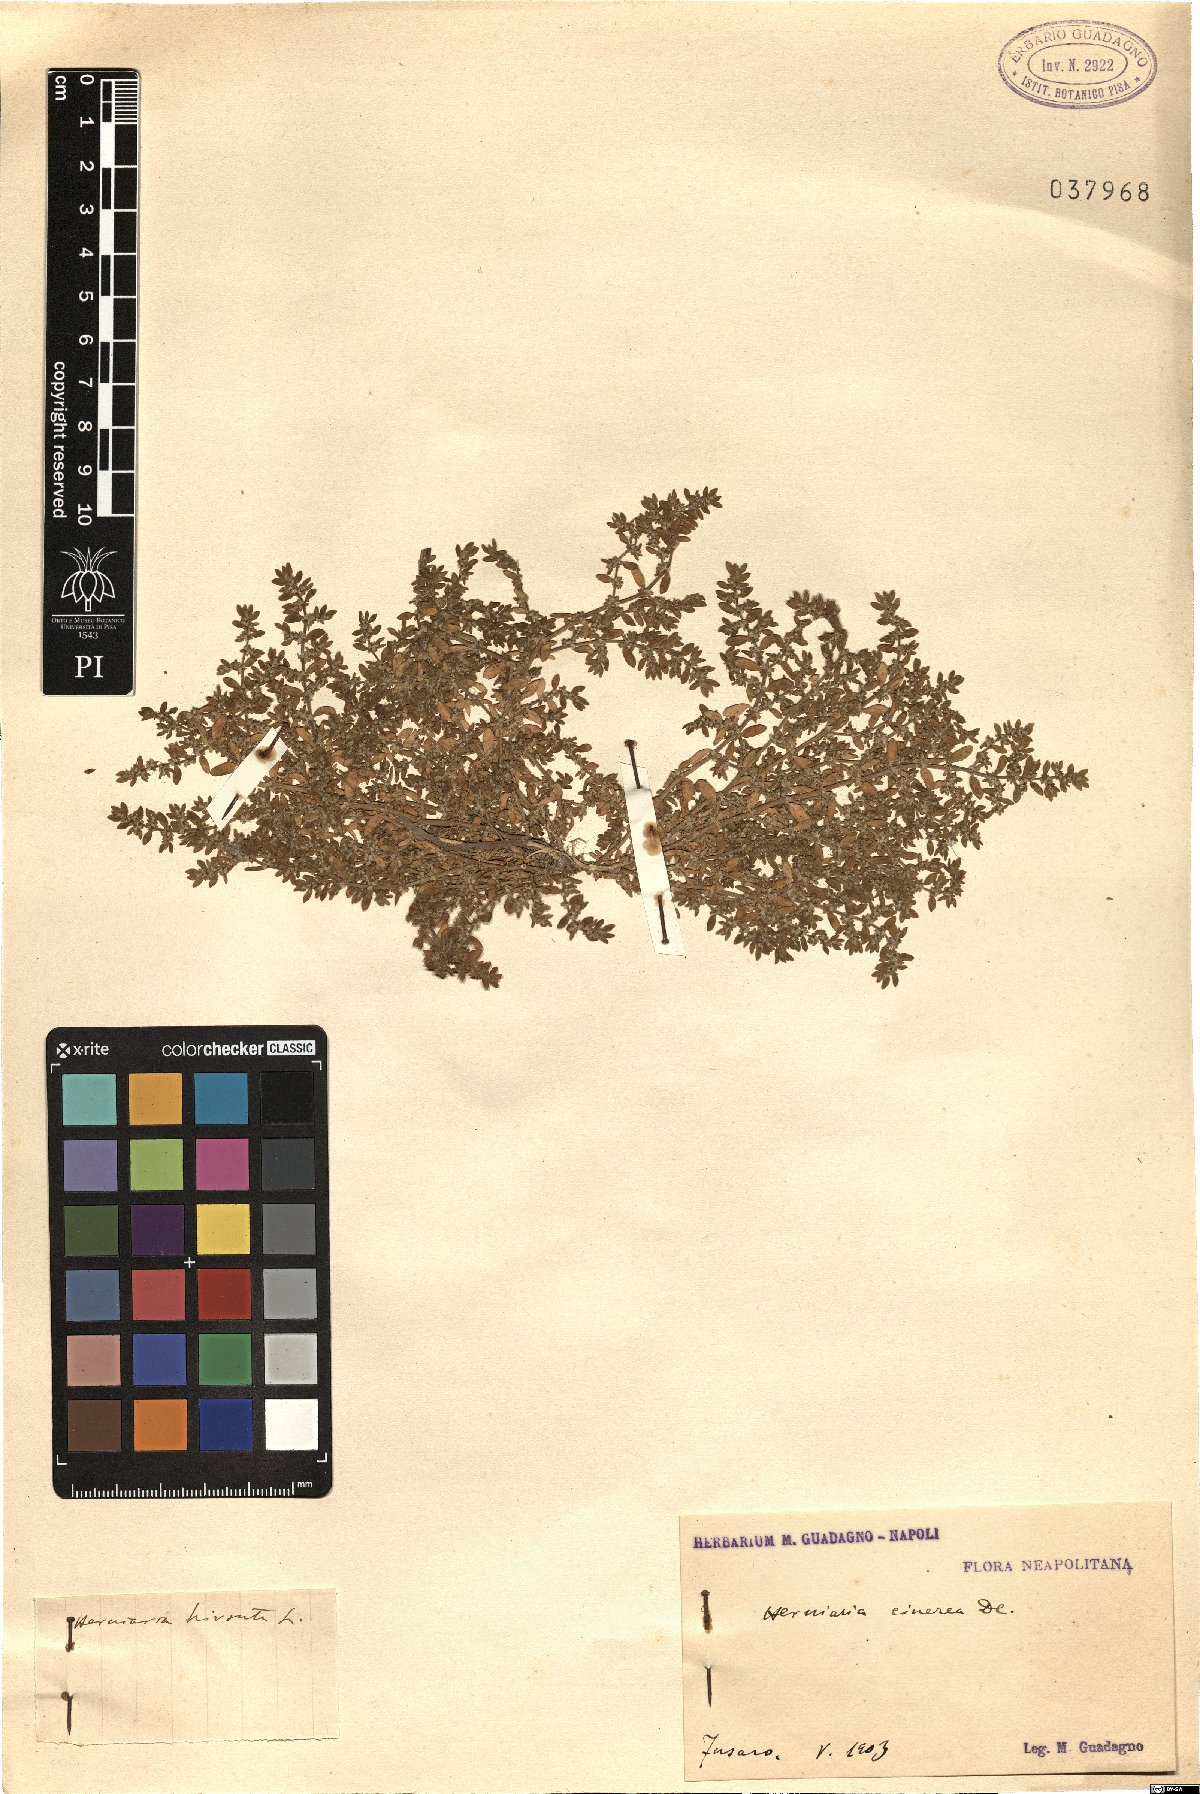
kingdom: Plantae
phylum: Tracheophyta
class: Magnoliopsida
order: Caryophyllales
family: Caryophyllaceae
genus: Herniaria
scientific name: Herniaria hirsuta
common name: Hairy rupturewort
